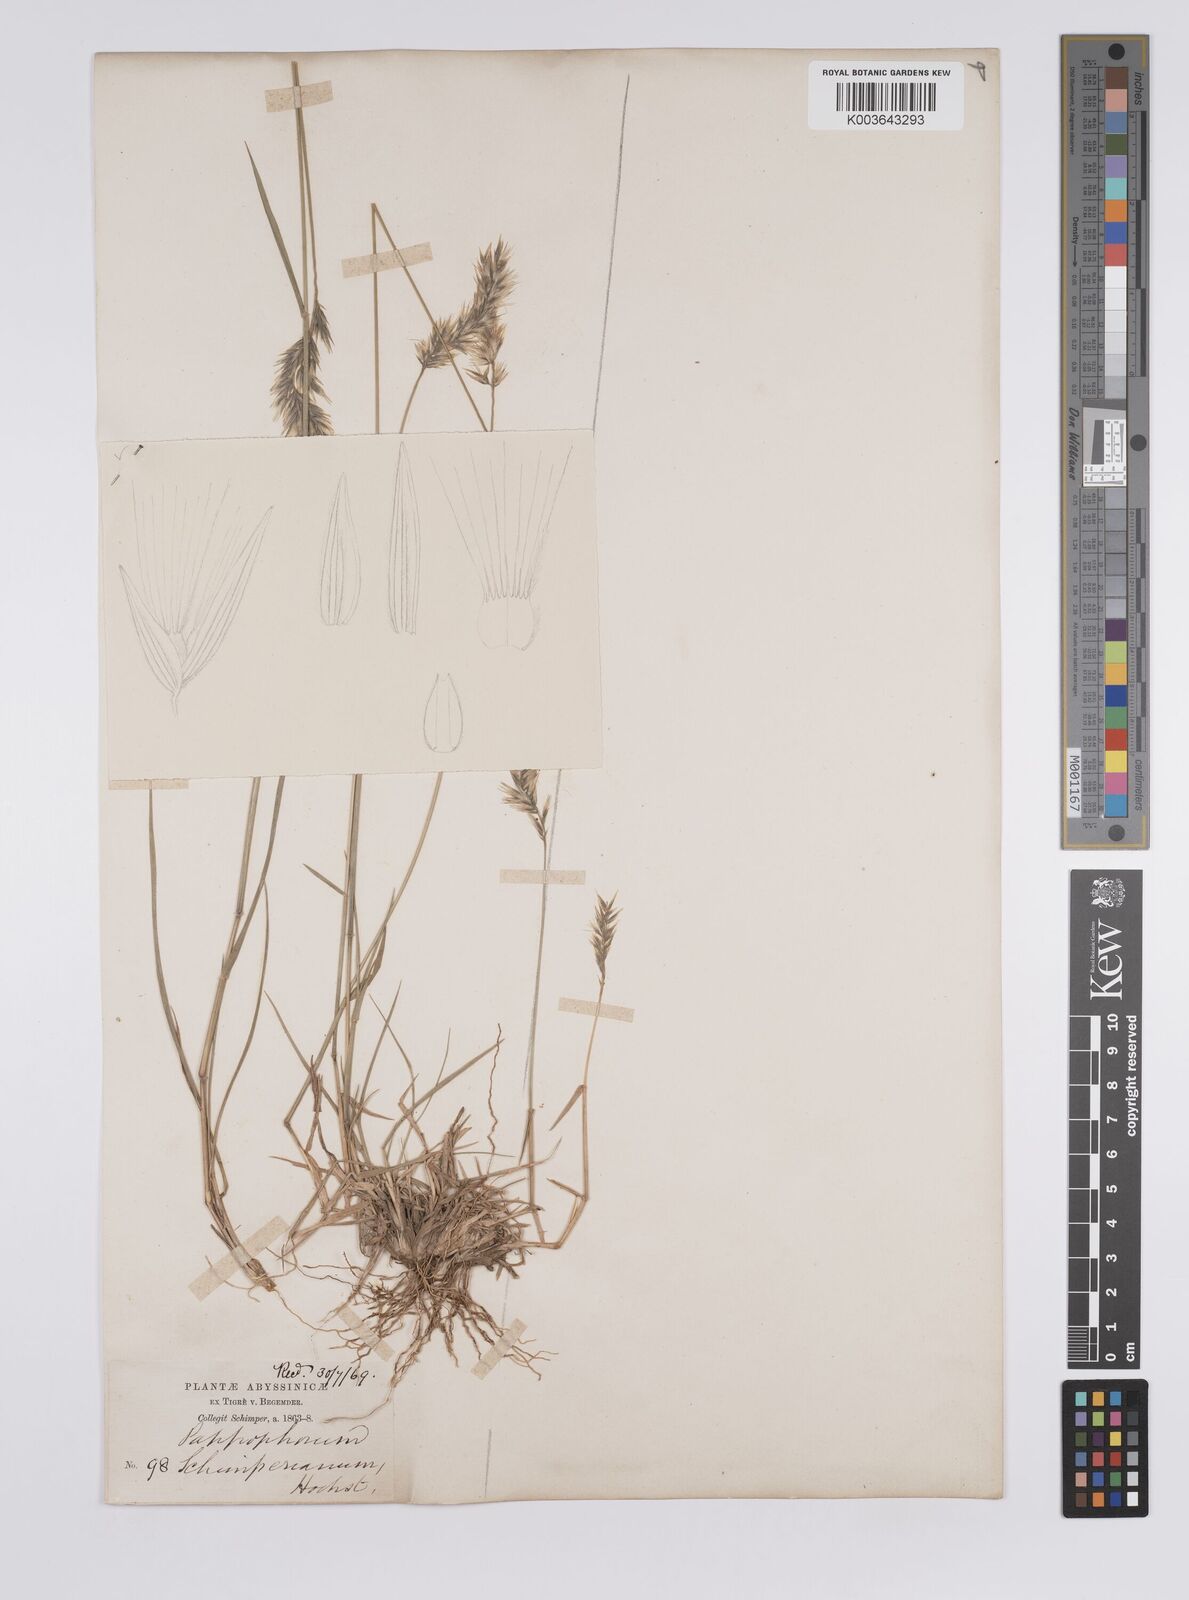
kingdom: Plantae
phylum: Tracheophyta
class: Liliopsida
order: Poales
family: Poaceae
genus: Enneapogon
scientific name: Enneapogon persicus
